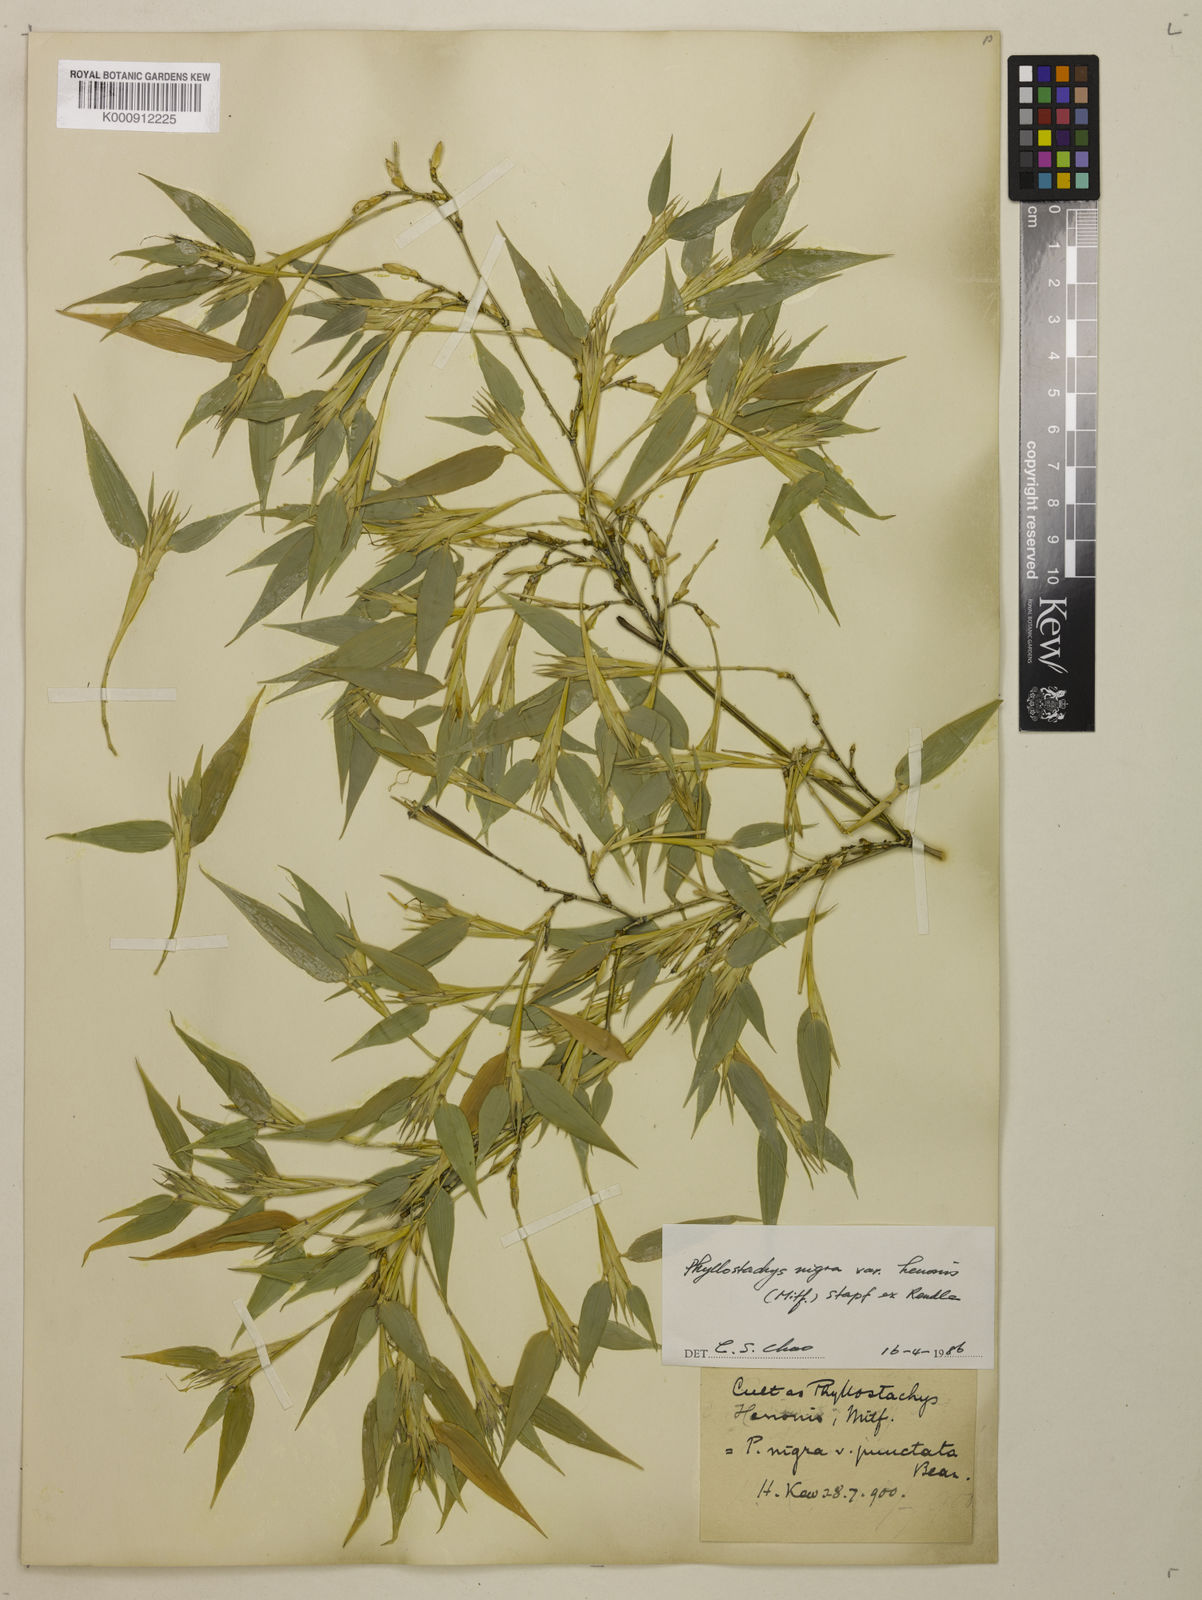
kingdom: Plantae
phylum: Tracheophyta
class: Liliopsida
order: Poales
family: Poaceae
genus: Phyllostachys
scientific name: Phyllostachys nigra
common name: Black bamboo
